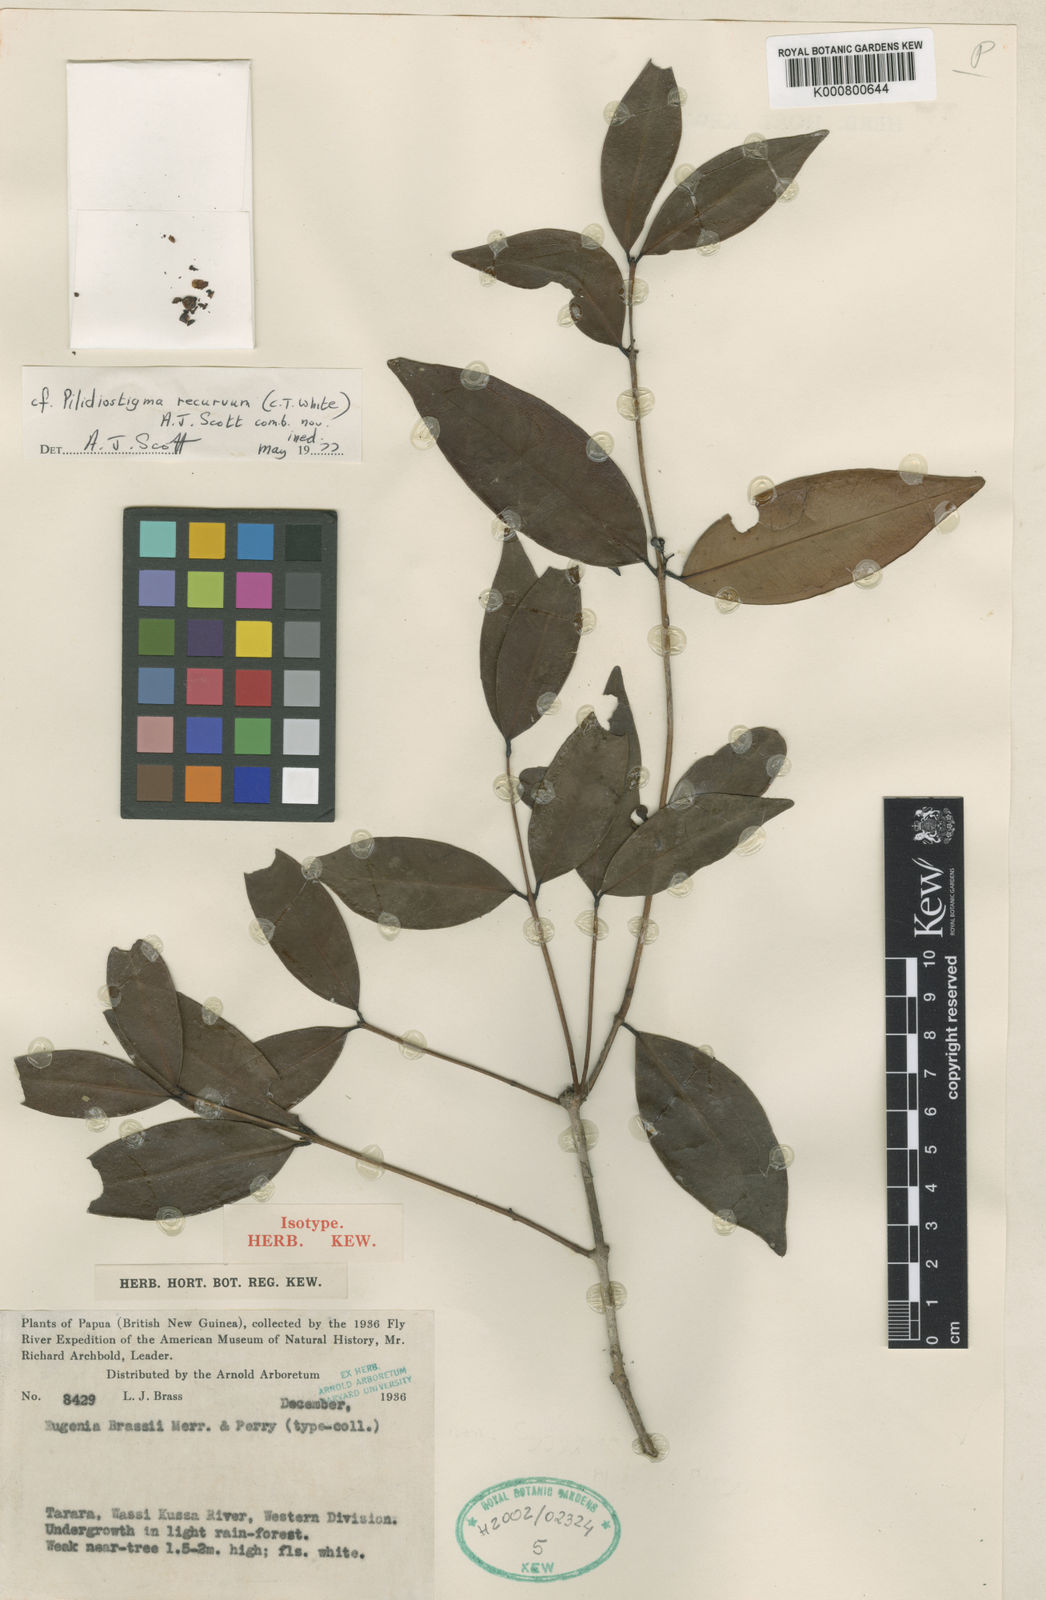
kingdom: Plantae
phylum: Tracheophyta
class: Magnoliopsida
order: Myrtales
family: Myrtaceae
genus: Pilidiostigma
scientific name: Pilidiostigma papuanum
